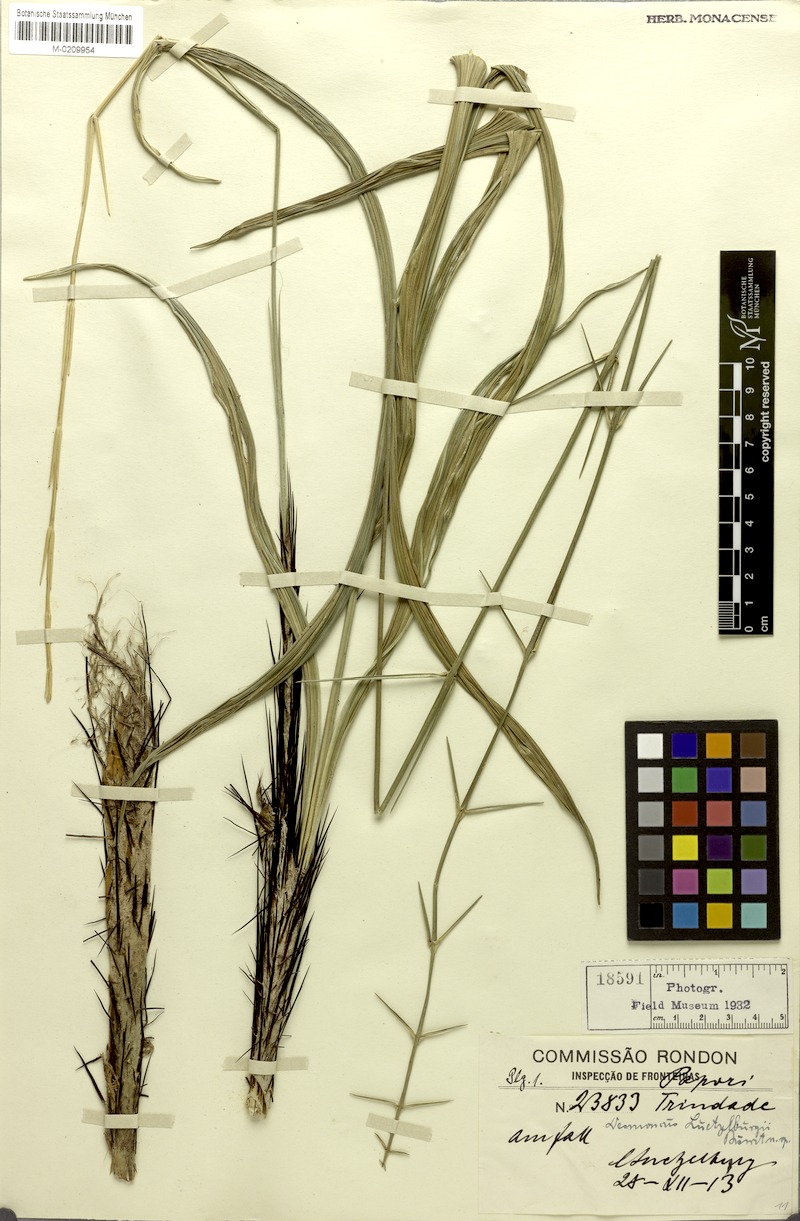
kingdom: Plantae
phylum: Tracheophyta
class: Liliopsida
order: Arecales
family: Arecaceae
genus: Desmoncus
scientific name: Desmoncus orthacanthos
